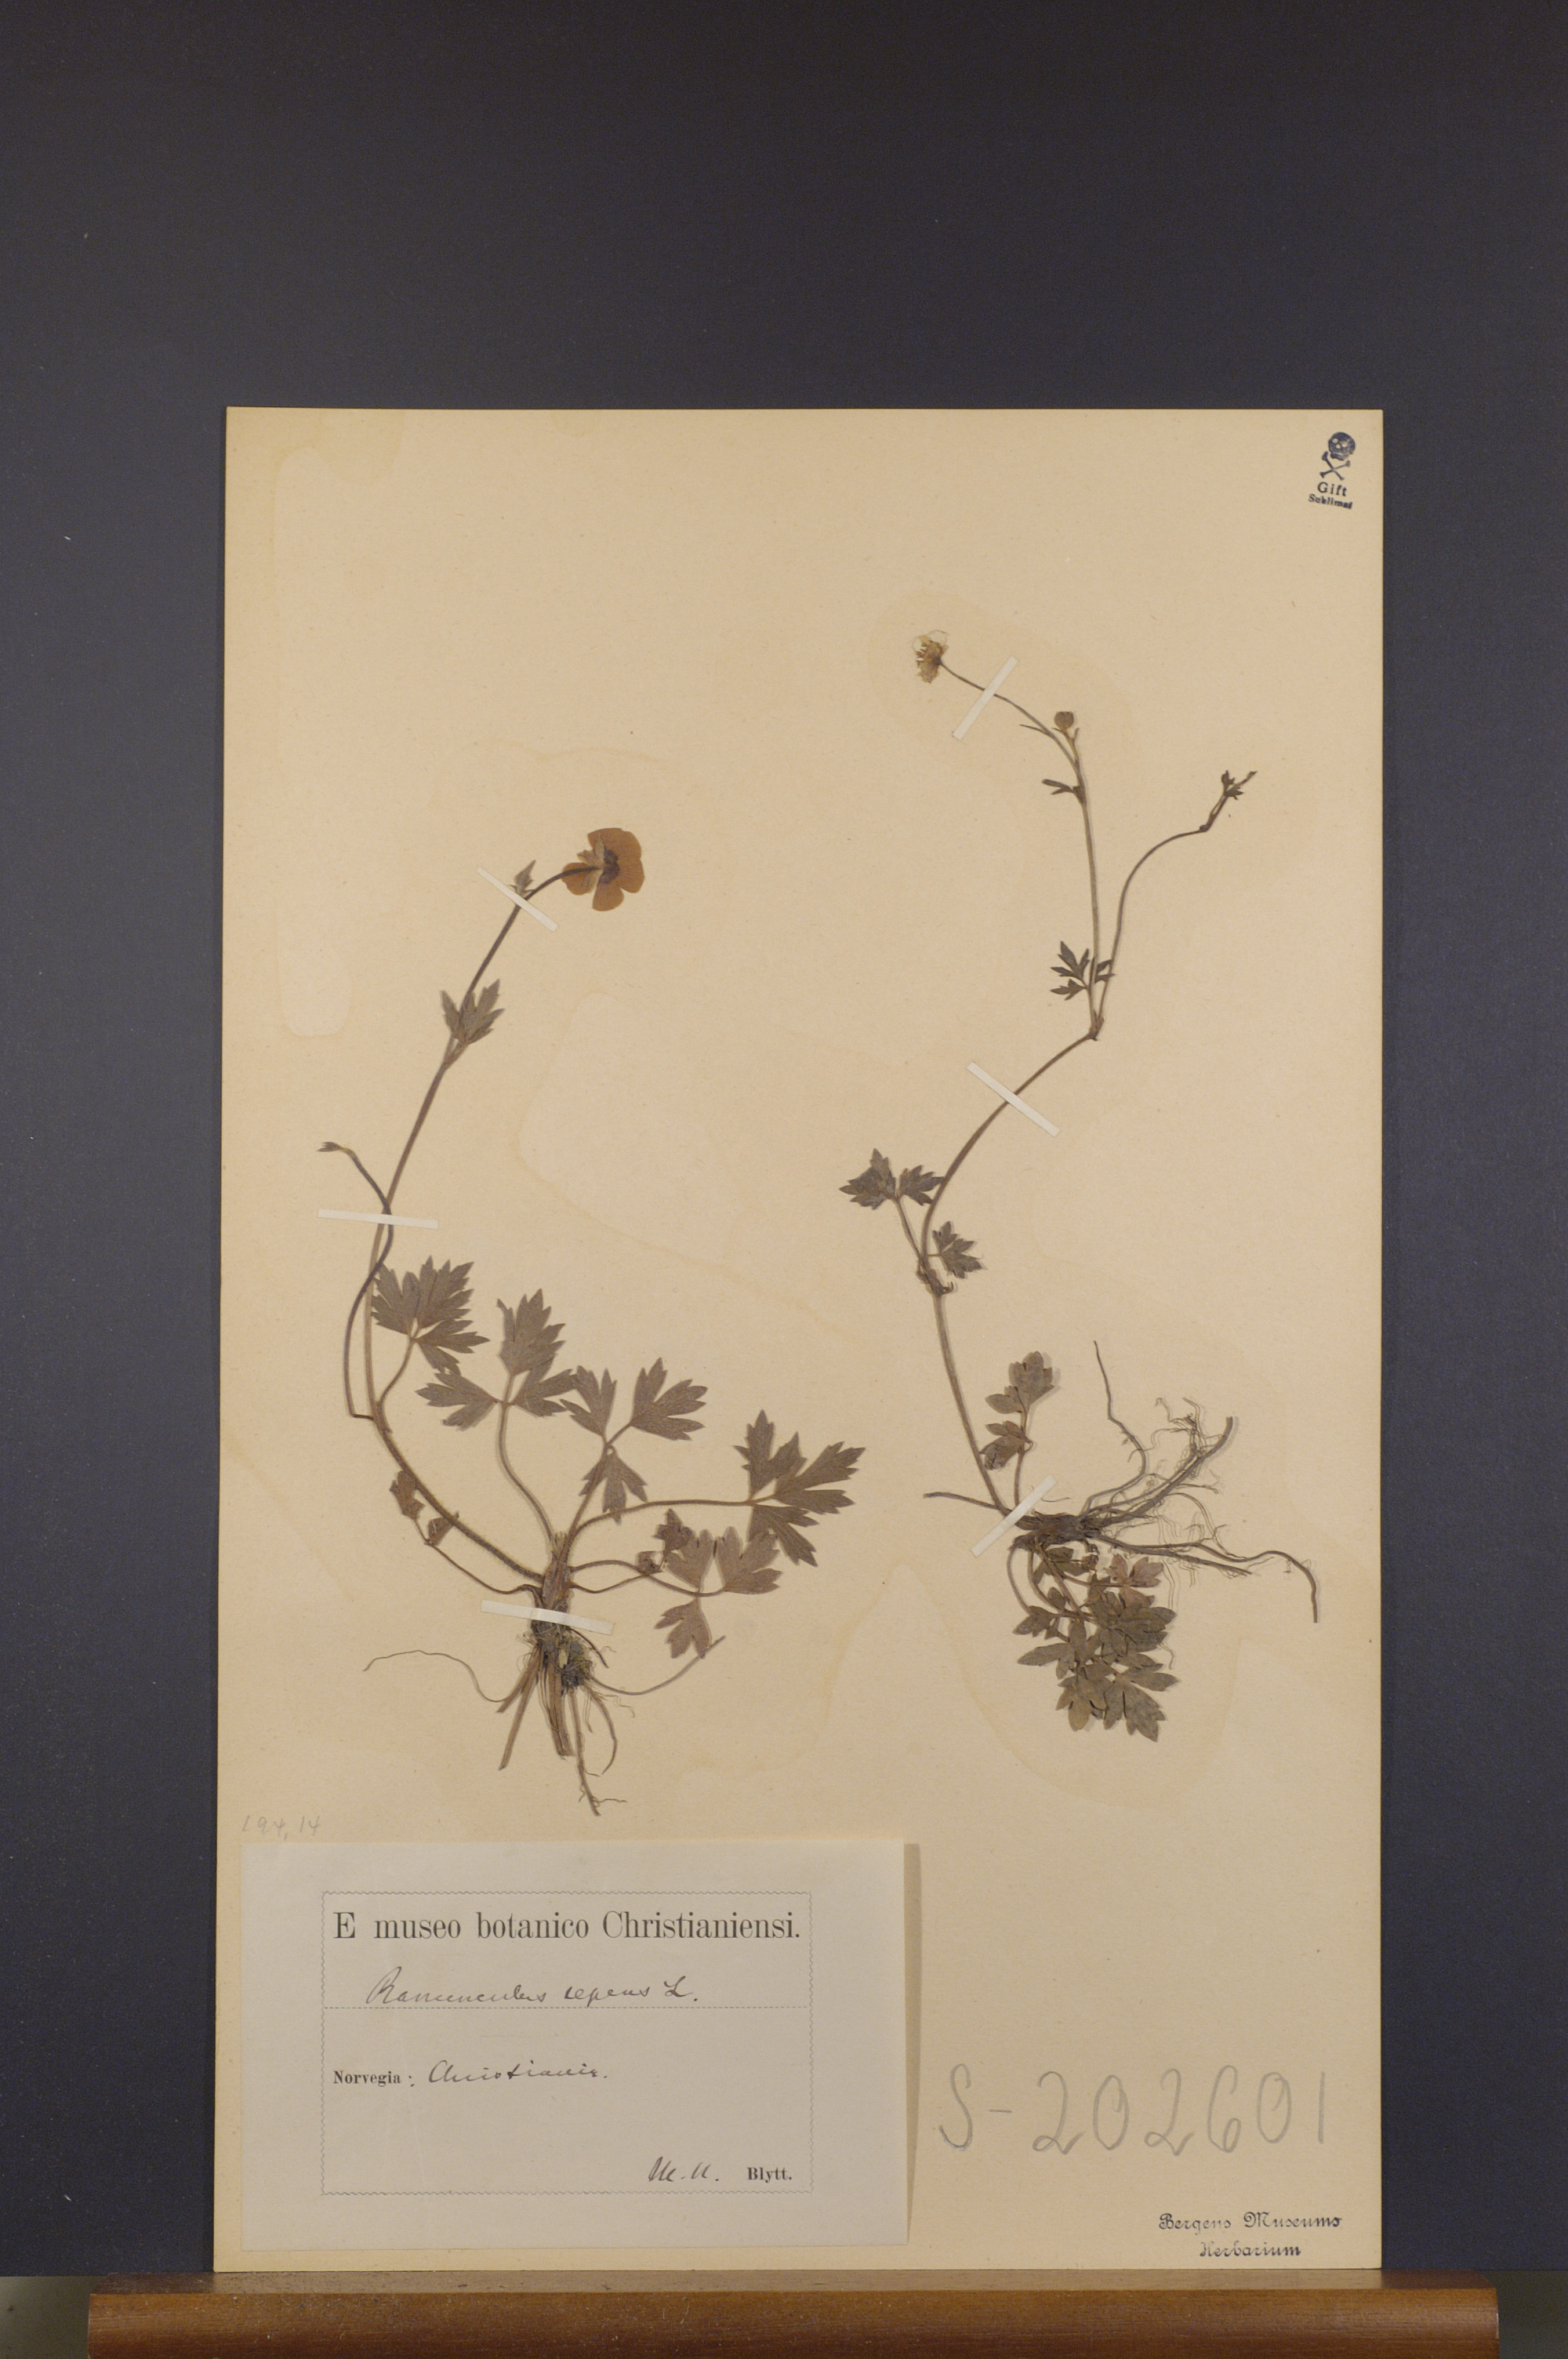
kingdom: Plantae
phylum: Tracheophyta
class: Magnoliopsida
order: Ranunculales
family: Ranunculaceae
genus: Ranunculus
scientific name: Ranunculus repens
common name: Creeping buttercup
